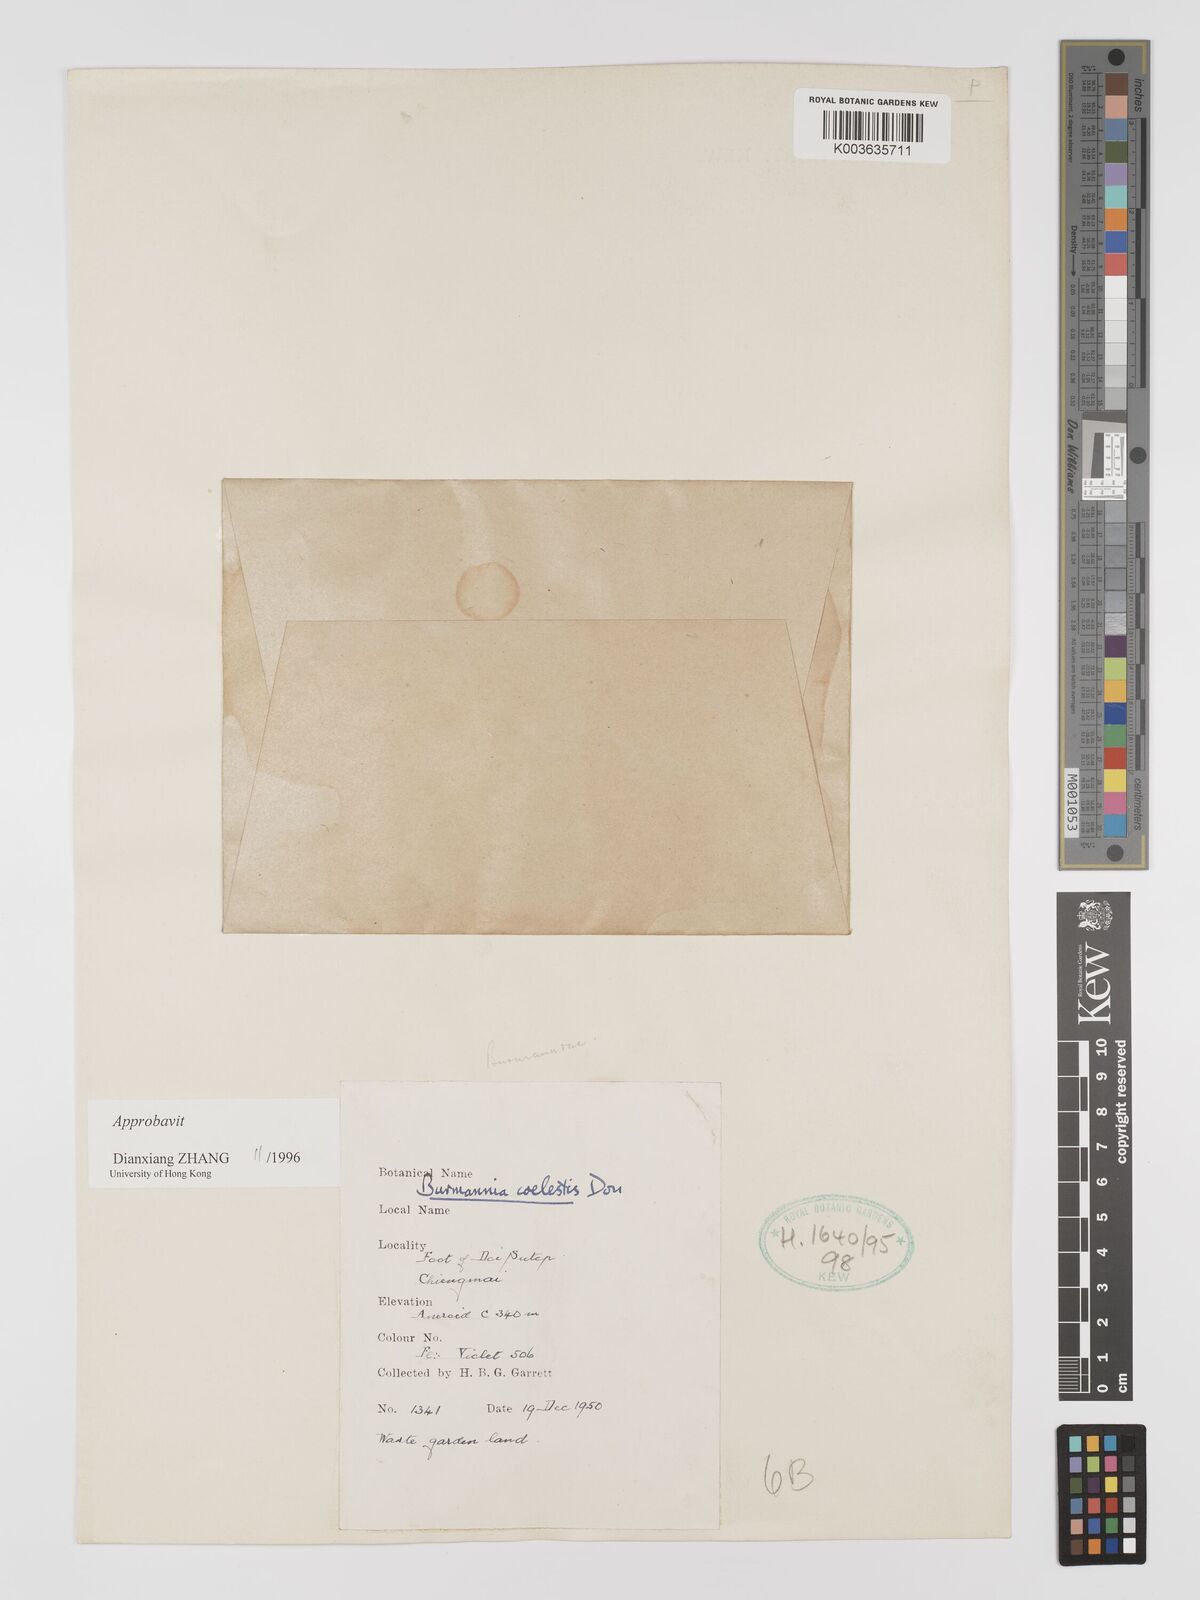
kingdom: Plantae
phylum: Tracheophyta
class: Liliopsida
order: Dioscoreales
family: Burmanniaceae
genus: Burmannia
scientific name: Burmannia coelestis
